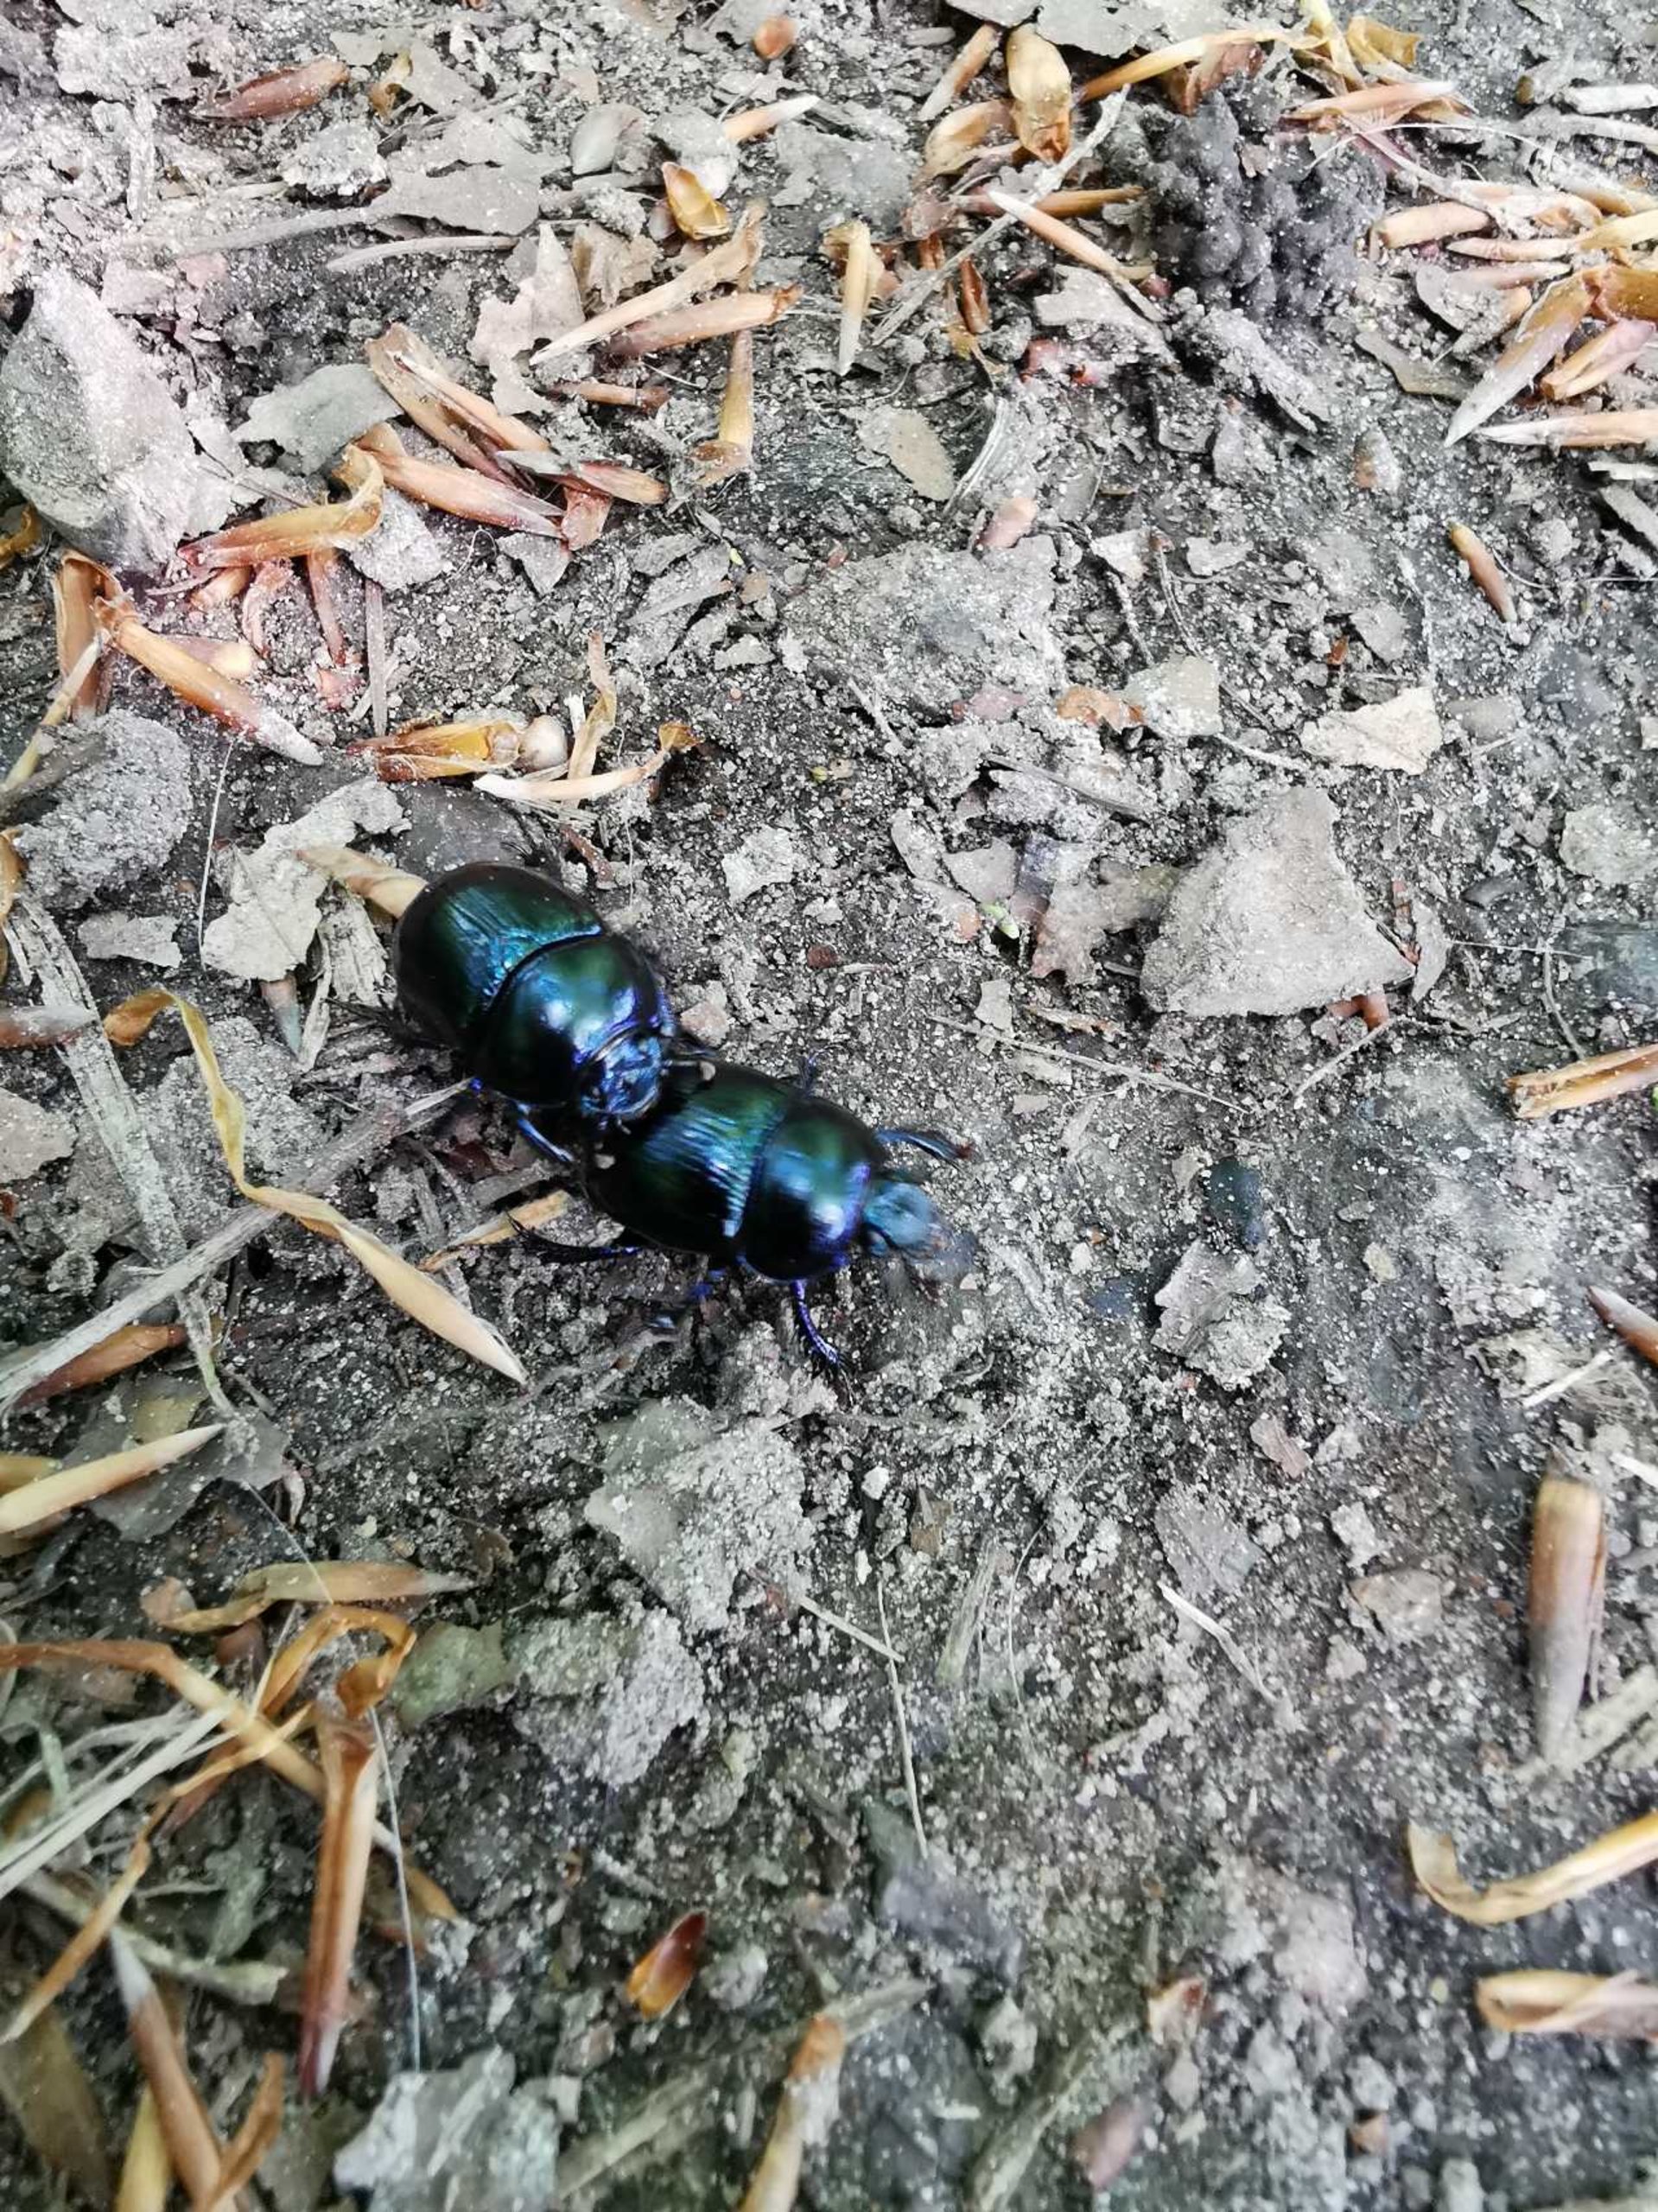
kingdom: Animalia
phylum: Arthropoda
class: Insecta
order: Coleoptera
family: Geotrupidae
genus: Anoplotrupes
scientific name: Anoplotrupes stercorosus
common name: Skovskarnbasse
